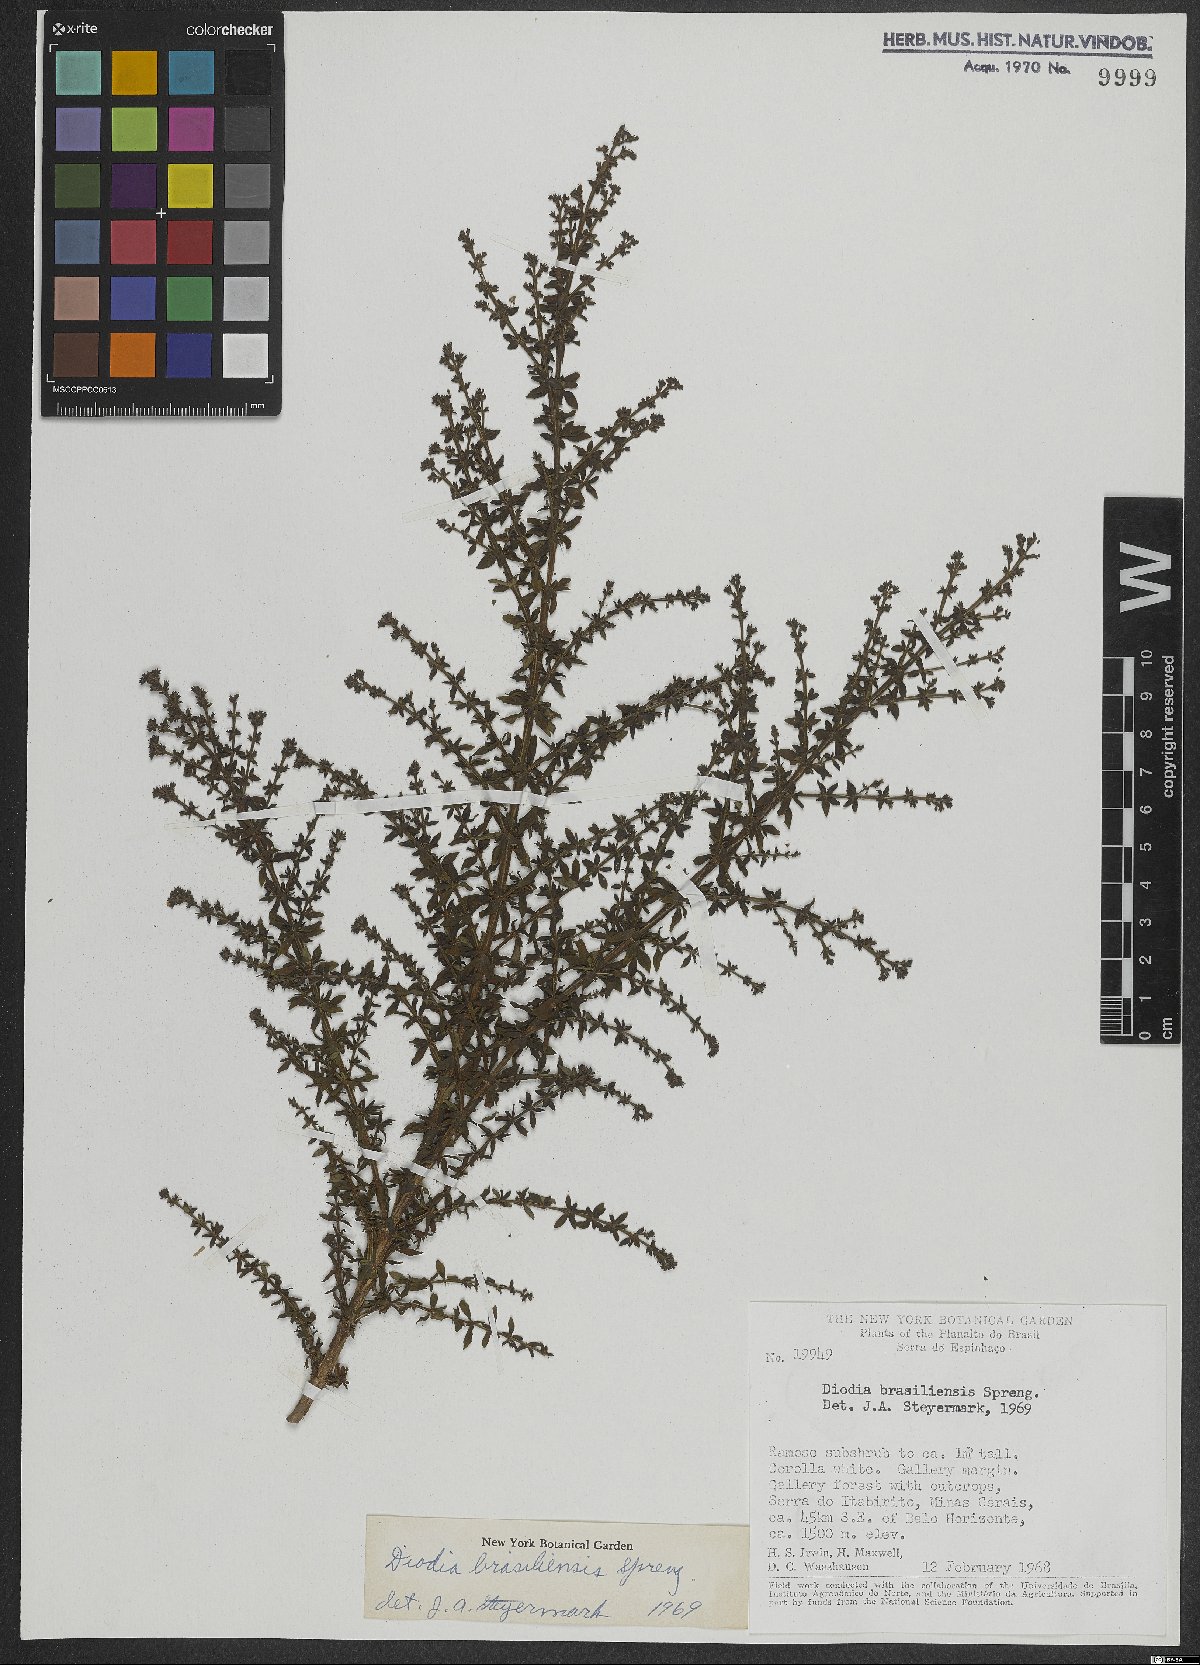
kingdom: Plantae
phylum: Tracheophyta
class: Magnoliopsida
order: Gentianales
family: Rubiaceae
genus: Galianthe
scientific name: Galianthe brasiliensis
